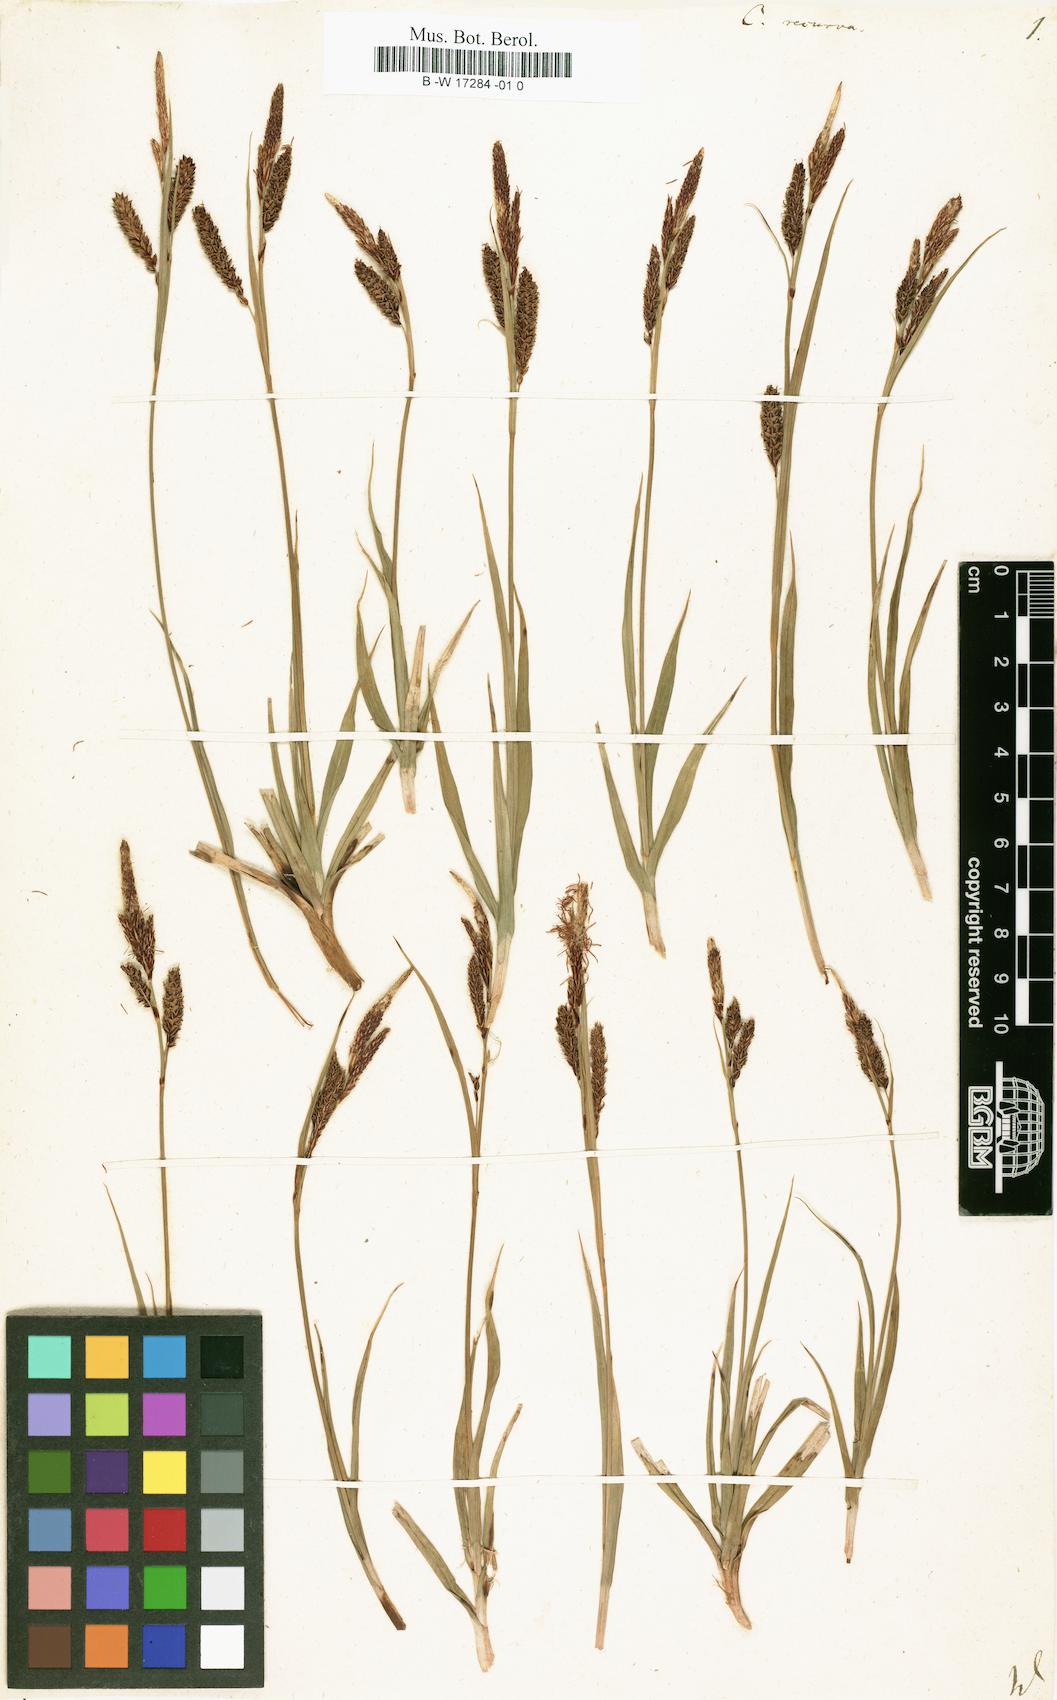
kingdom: Plantae
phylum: Tracheophyta
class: Liliopsida
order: Poales
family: Cyperaceae
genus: Carex
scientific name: Carex flacca
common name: Glaucous sedge
